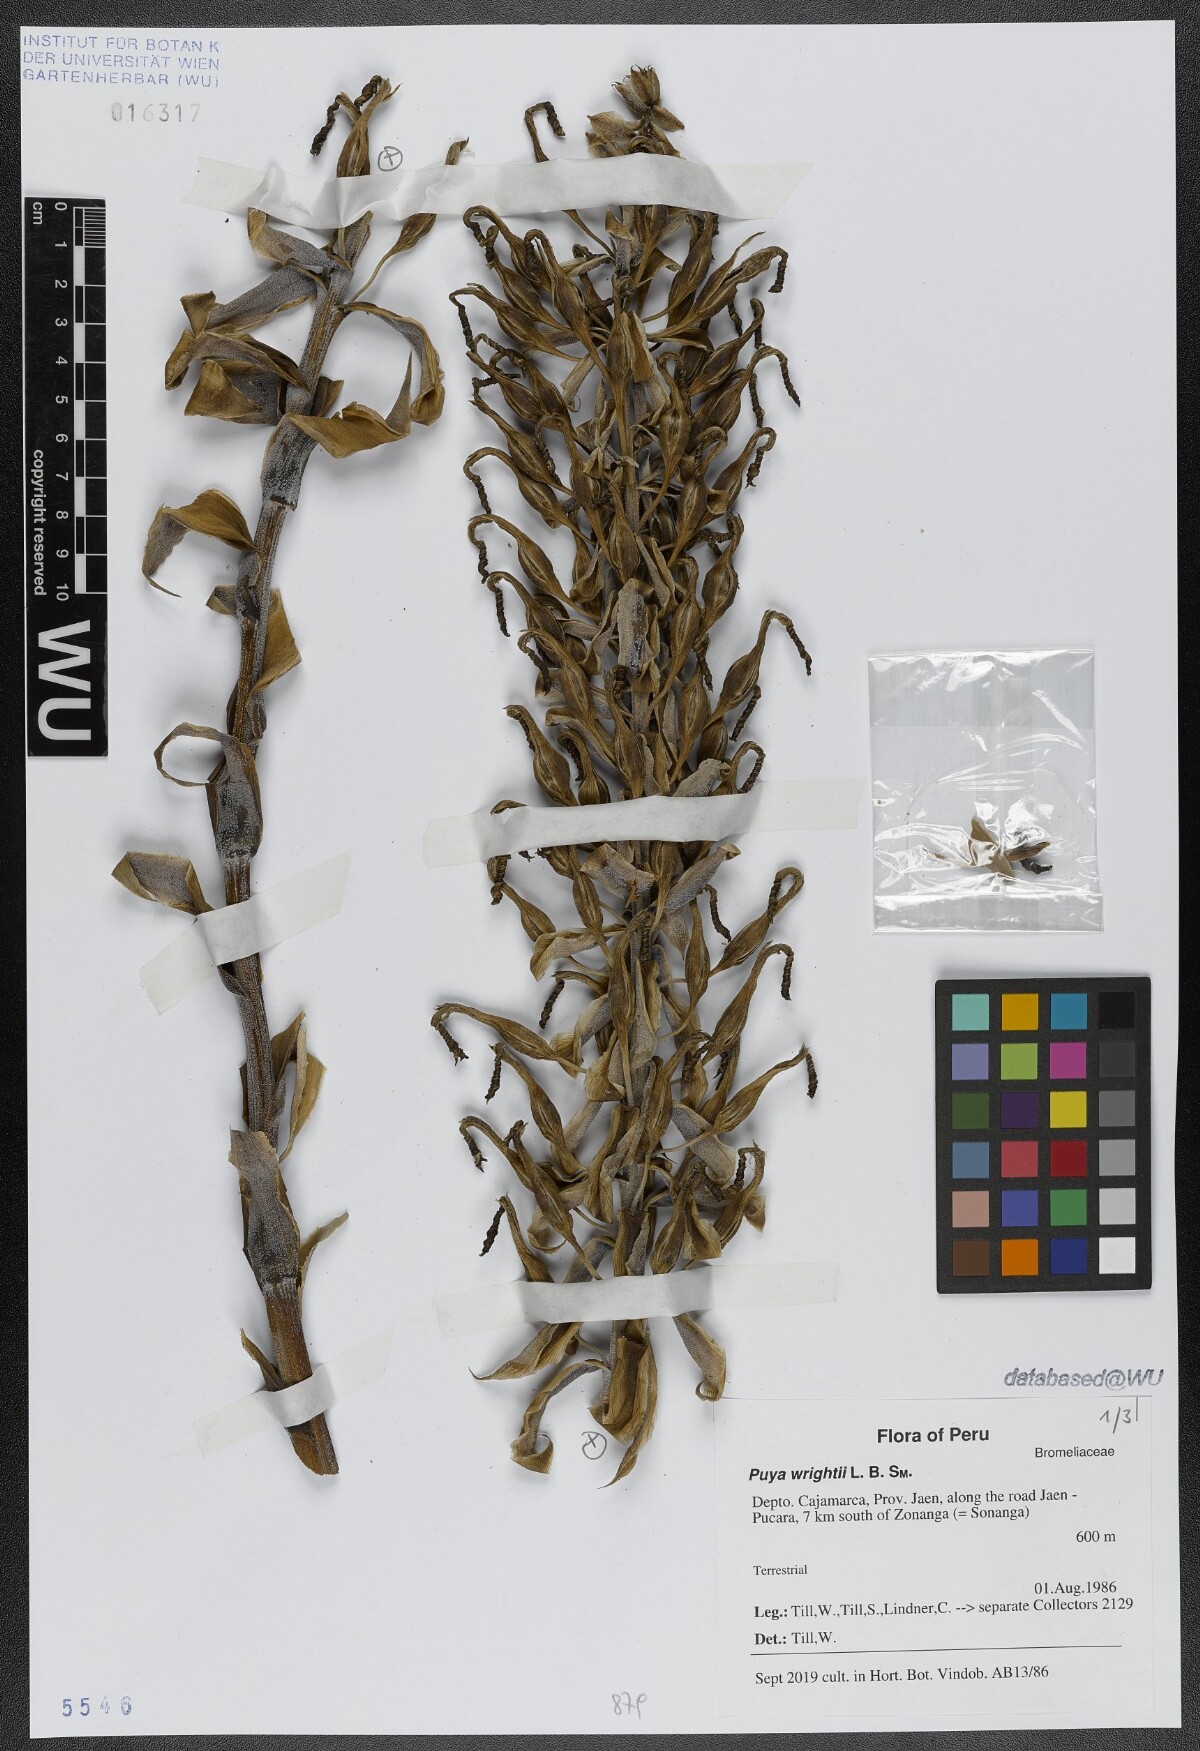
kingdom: Plantae
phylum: Tracheophyta
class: Liliopsida
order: Poales
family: Bromeliaceae
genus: Puya
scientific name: Puya wrightii
